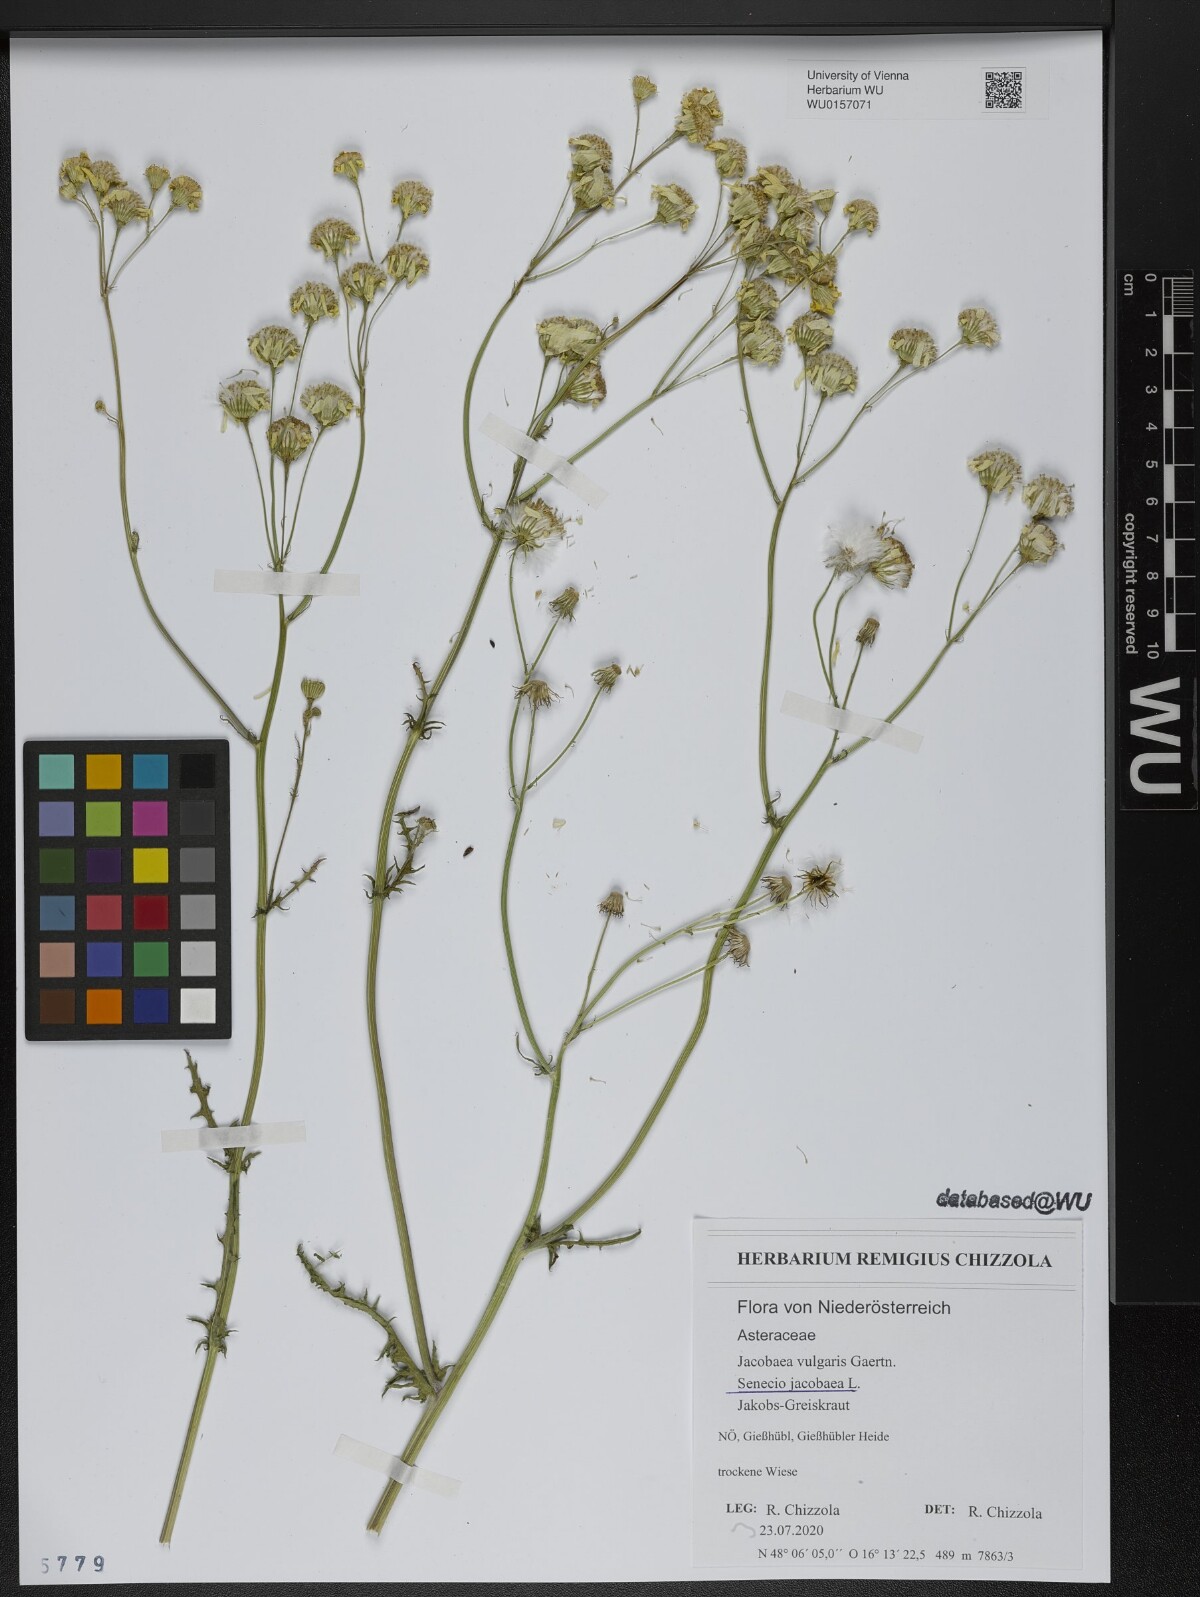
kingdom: Plantae
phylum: Tracheophyta
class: Magnoliopsida
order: Asterales
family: Asteraceae
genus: Jacobaea
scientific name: Jacobaea vulgaris
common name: Stinking willie
